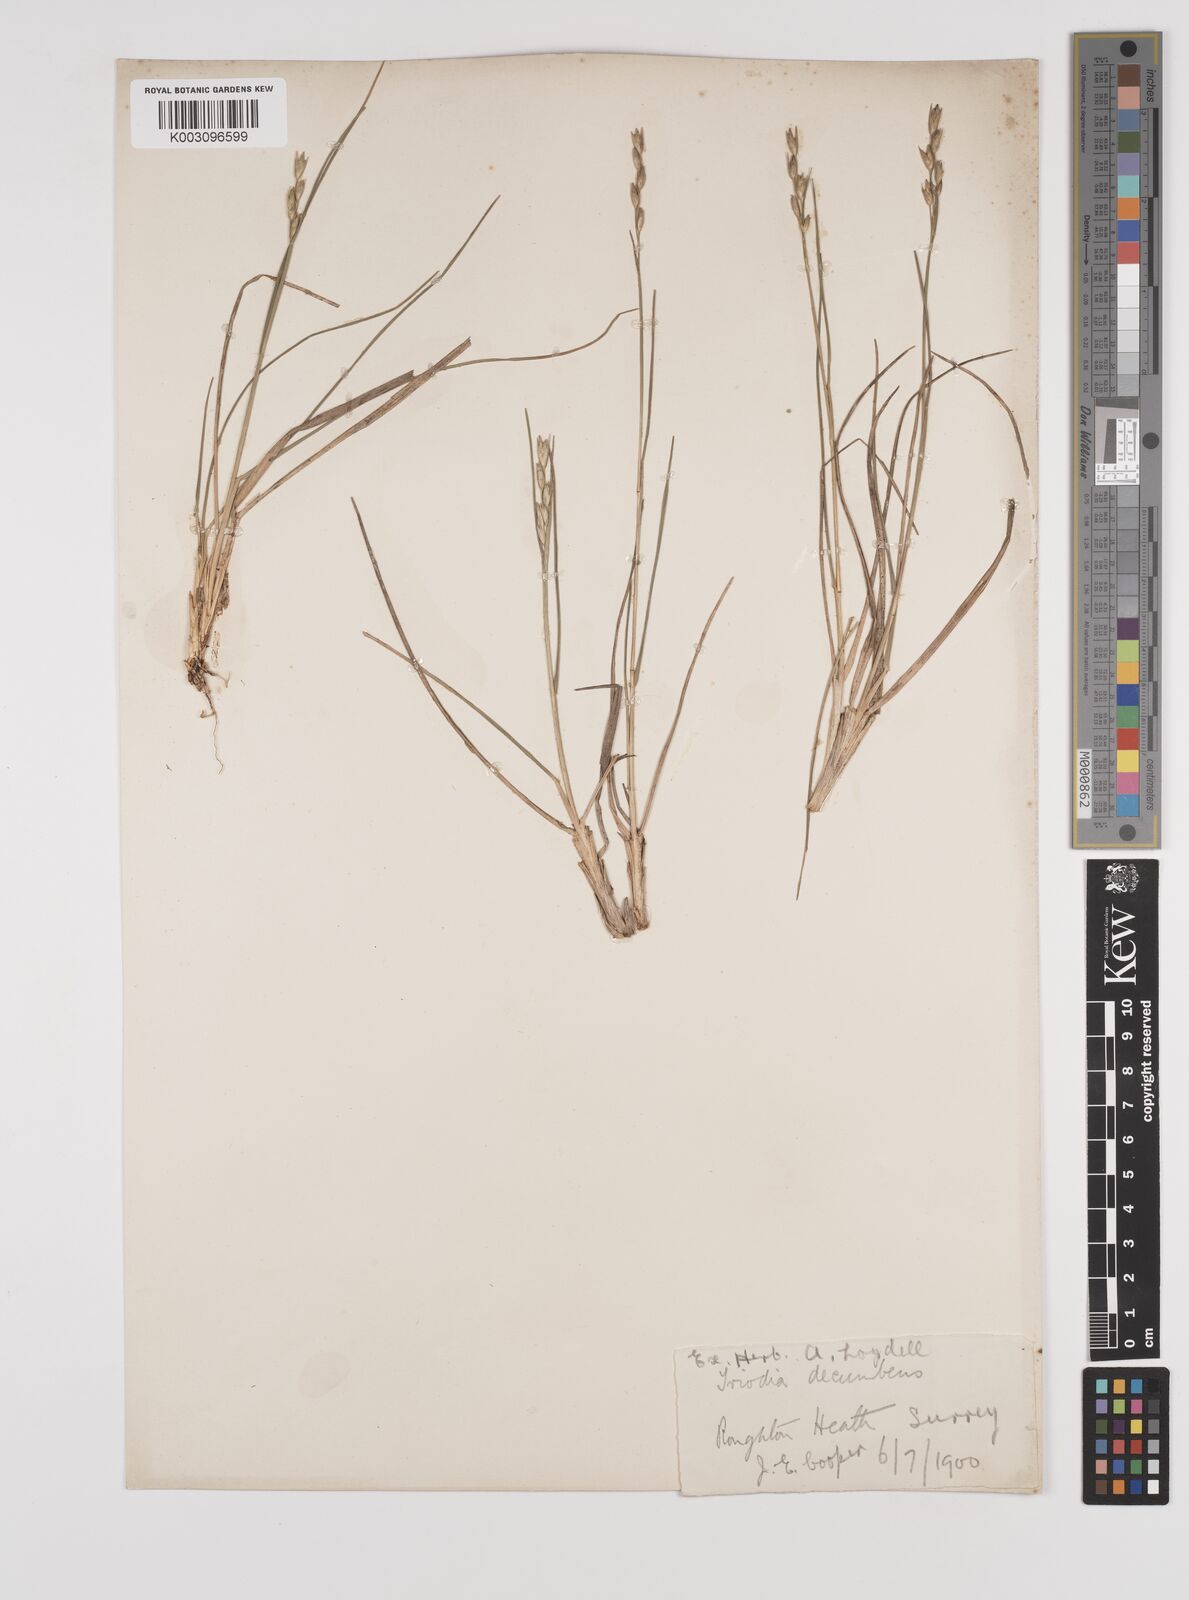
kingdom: Plantae
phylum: Tracheophyta
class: Liliopsida
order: Poales
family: Poaceae
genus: Danthonia
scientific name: Danthonia decumbens
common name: Common heathgrass
